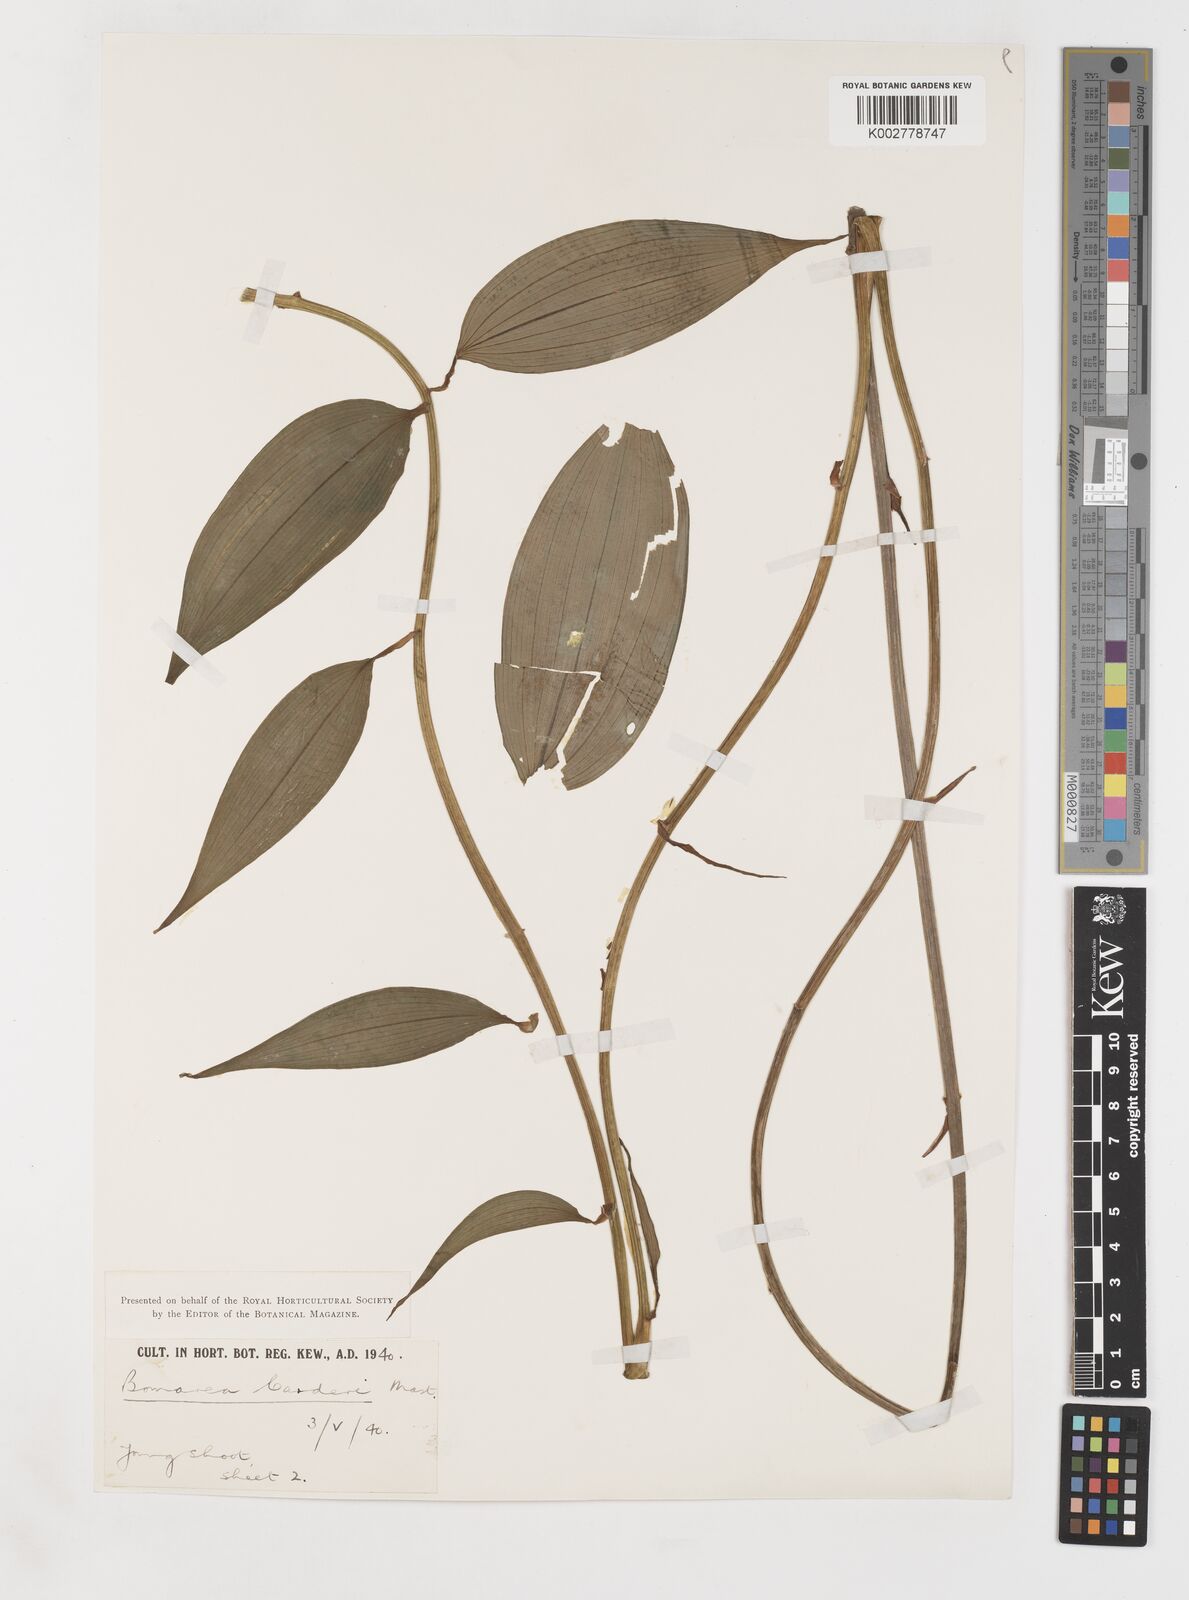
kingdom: Plantae
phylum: Tracheophyta
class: Liliopsida
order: Liliales
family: Alstroemeriaceae
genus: Bomarea
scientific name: Bomarea carderi
